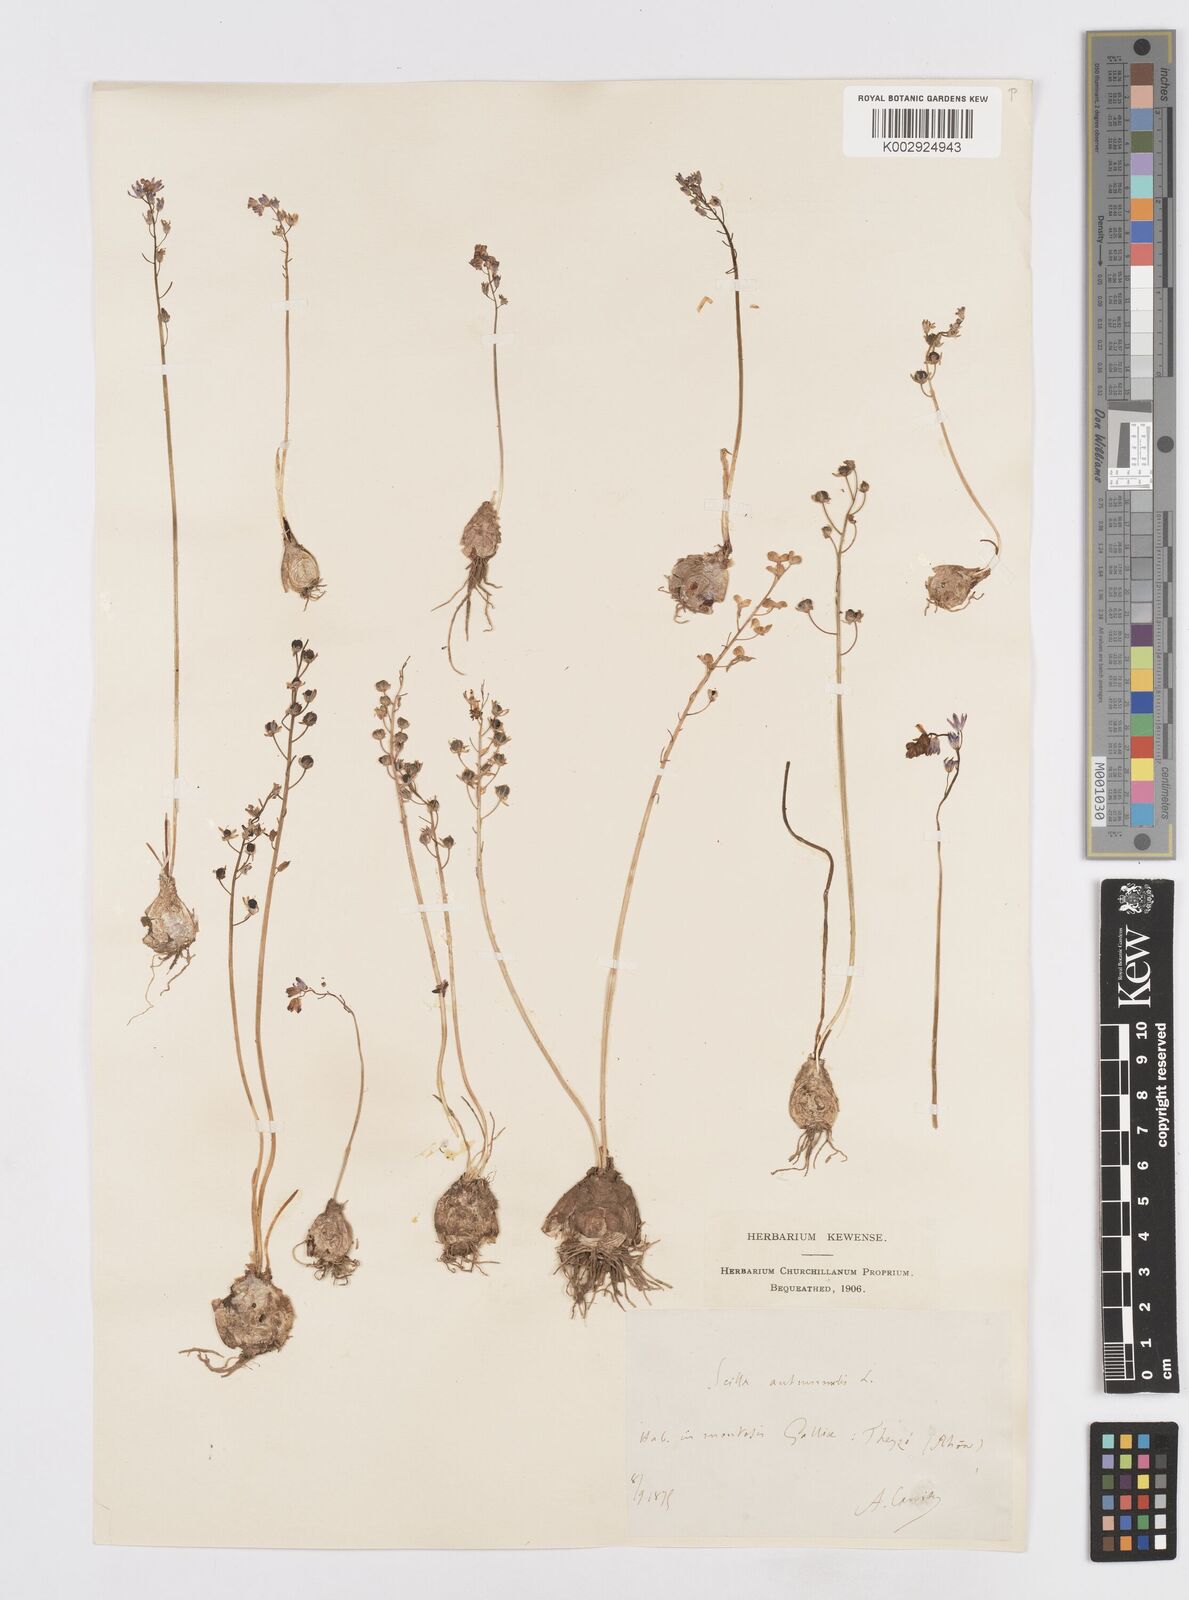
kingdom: Plantae
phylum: Tracheophyta
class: Liliopsida
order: Asparagales
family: Asparagaceae
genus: Prospero
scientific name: Prospero autumnale
